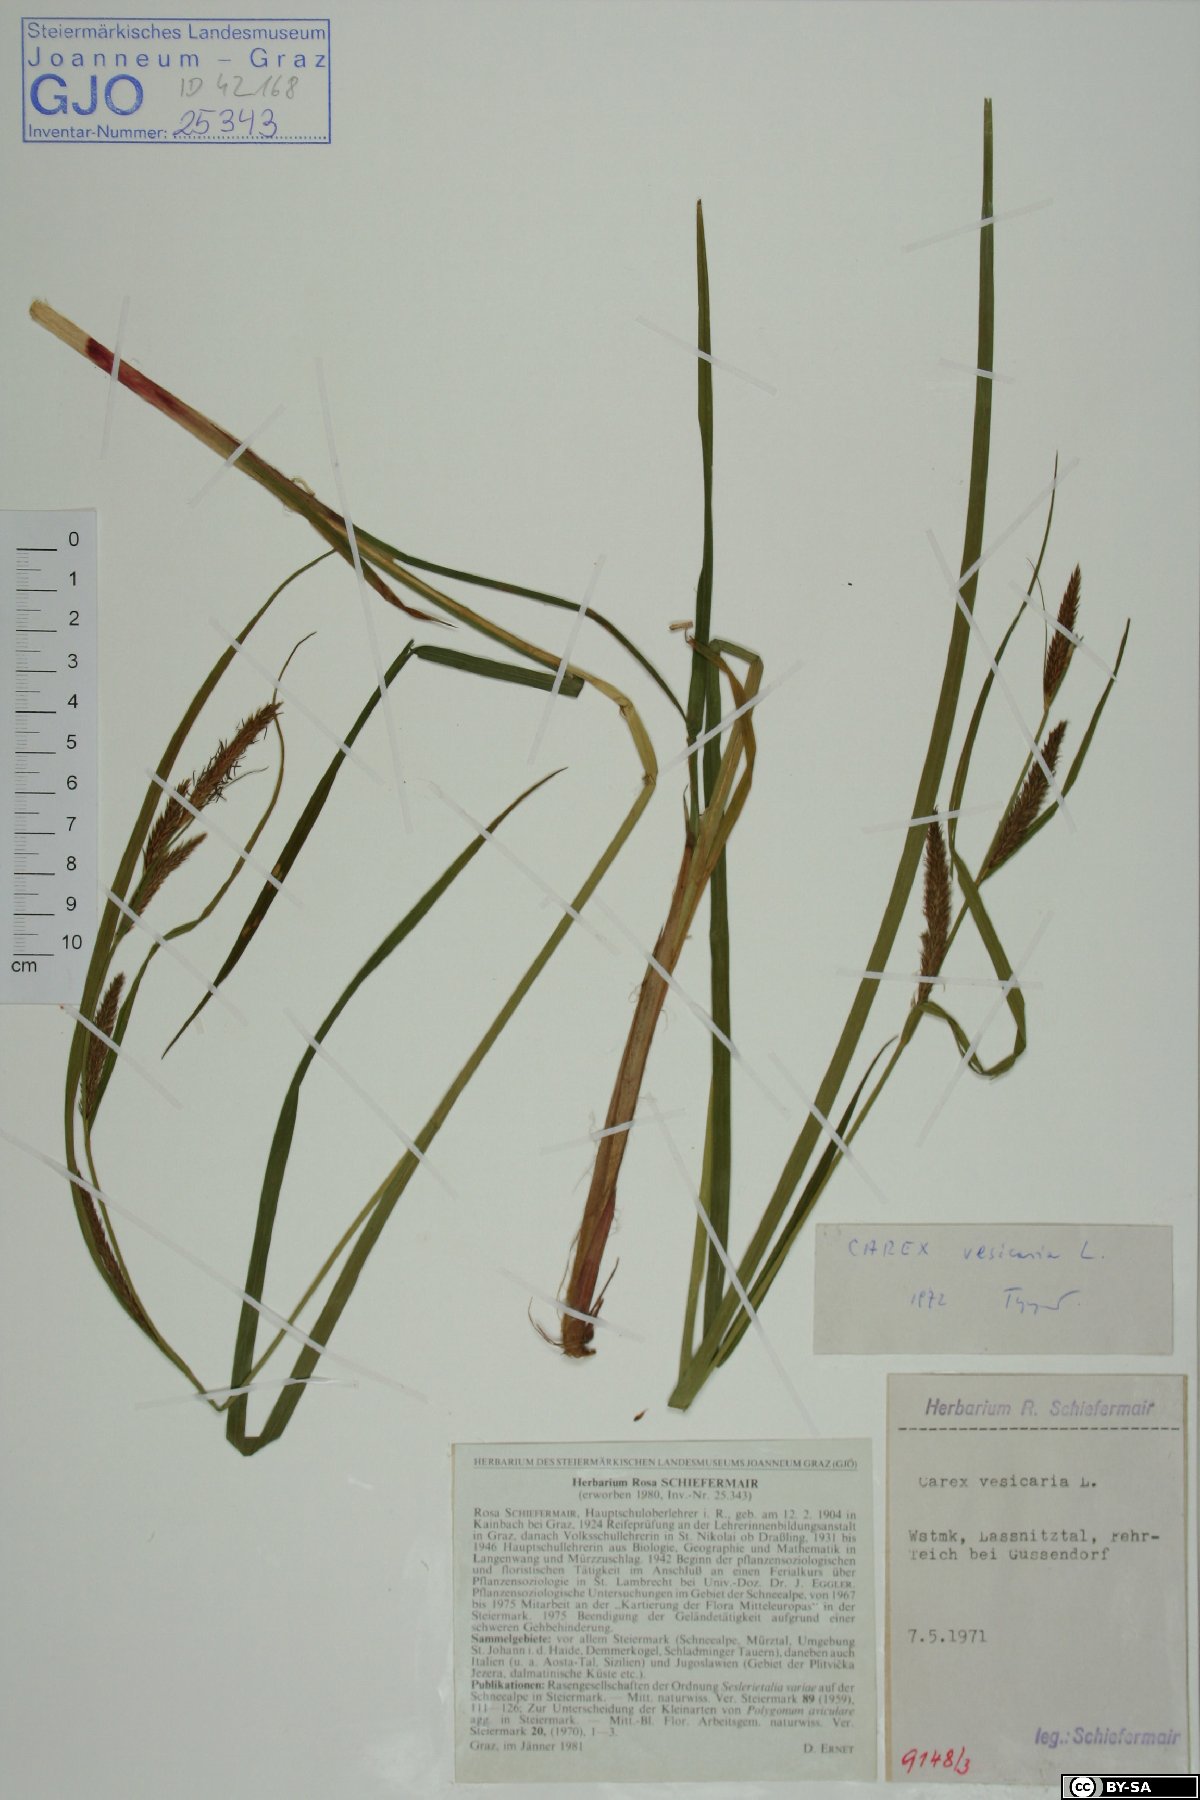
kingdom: Plantae
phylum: Tracheophyta
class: Liliopsida
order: Poales
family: Cyperaceae
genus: Carex
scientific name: Carex vesicaria
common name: Bladder-sedge
